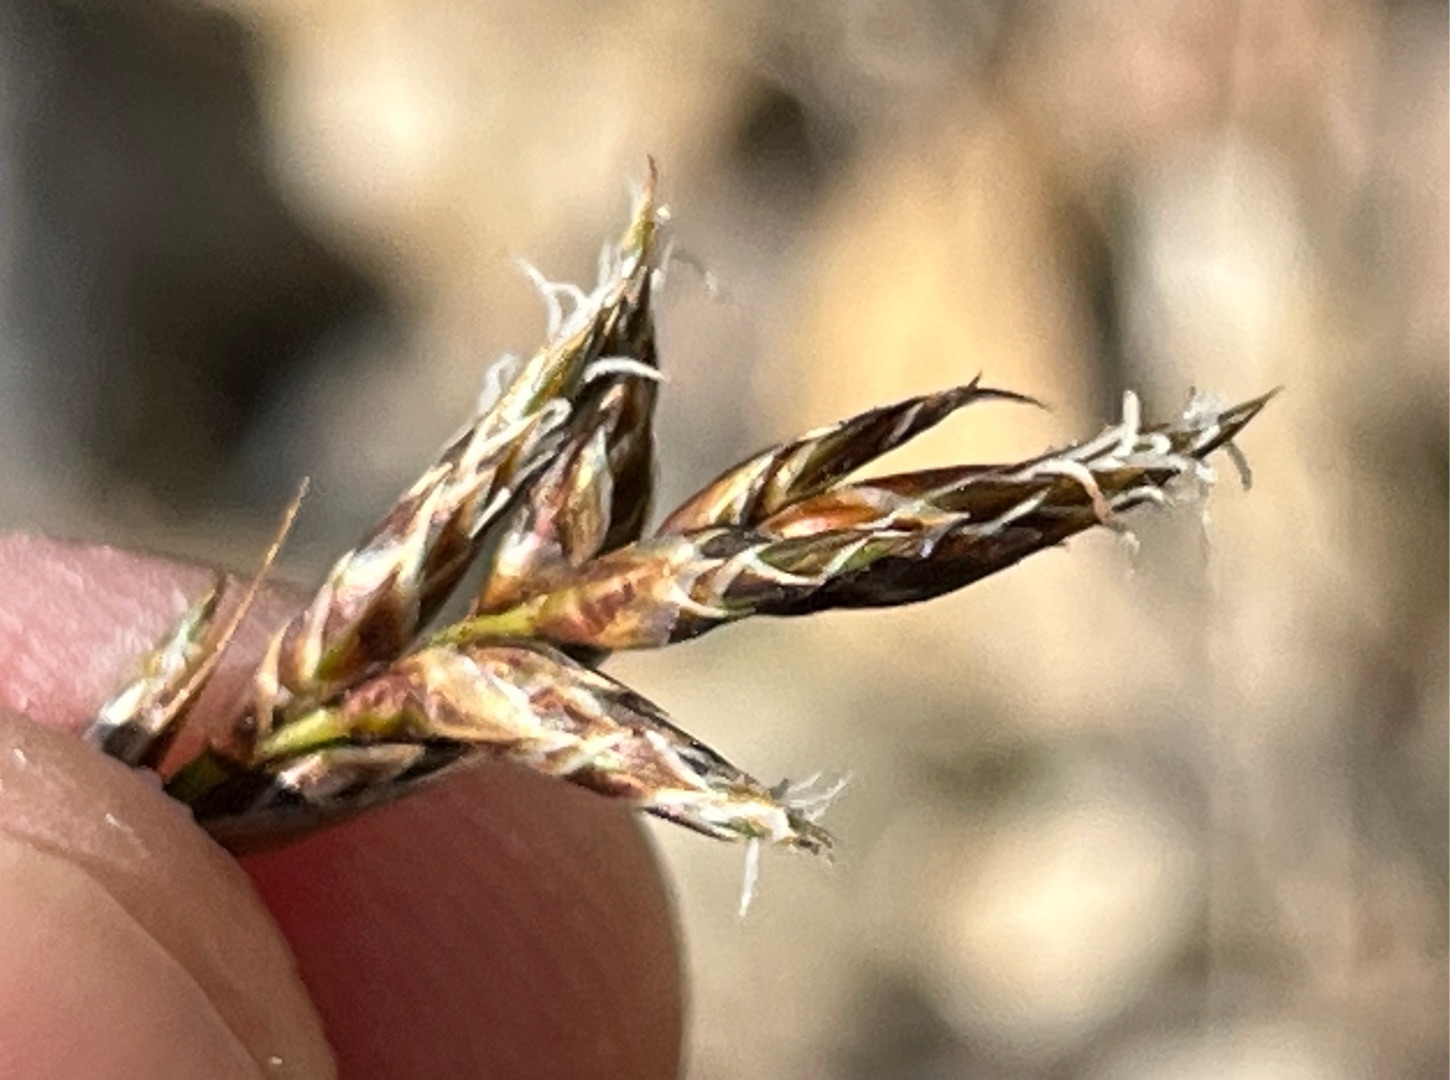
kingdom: Plantae
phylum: Tracheophyta
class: Liliopsida
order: Poales
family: Cyperaceae
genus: Carex
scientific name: Carex colchica
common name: Skrænt-star
